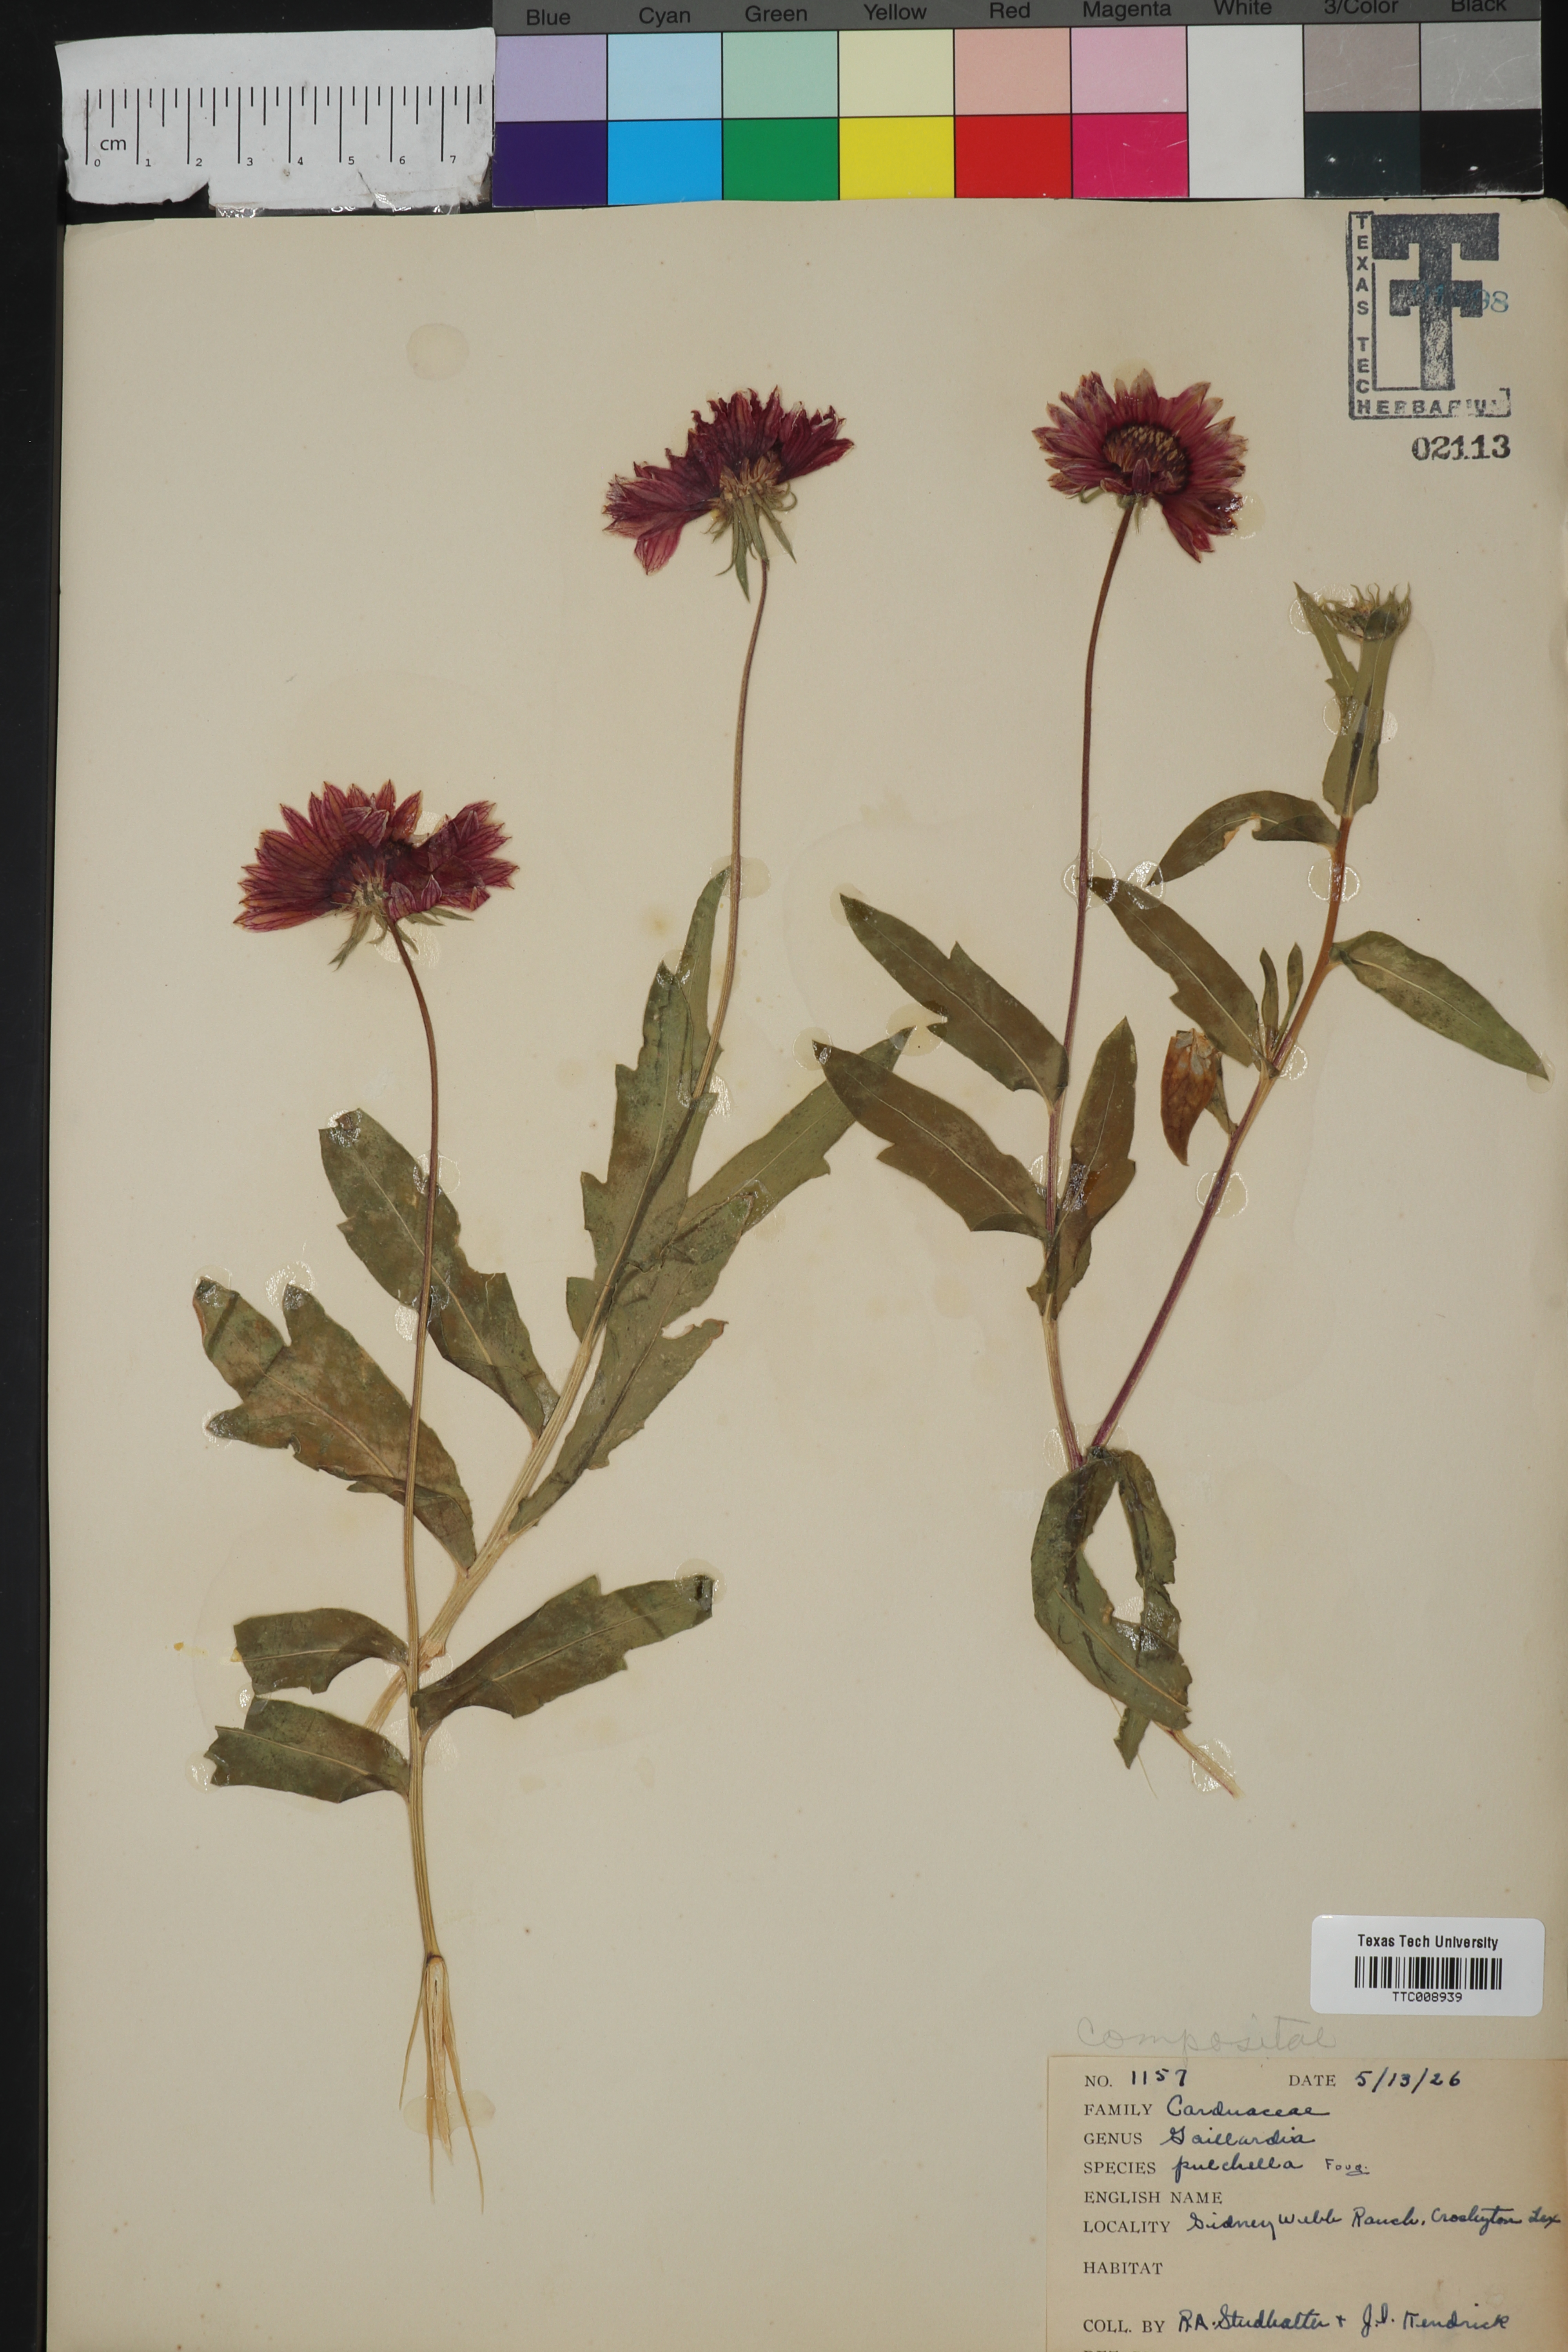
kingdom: Plantae
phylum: Tracheophyta
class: Magnoliopsida
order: Asterales
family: Asteraceae
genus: Gaillardia
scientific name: Gaillardia pulchella
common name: Firewheel
